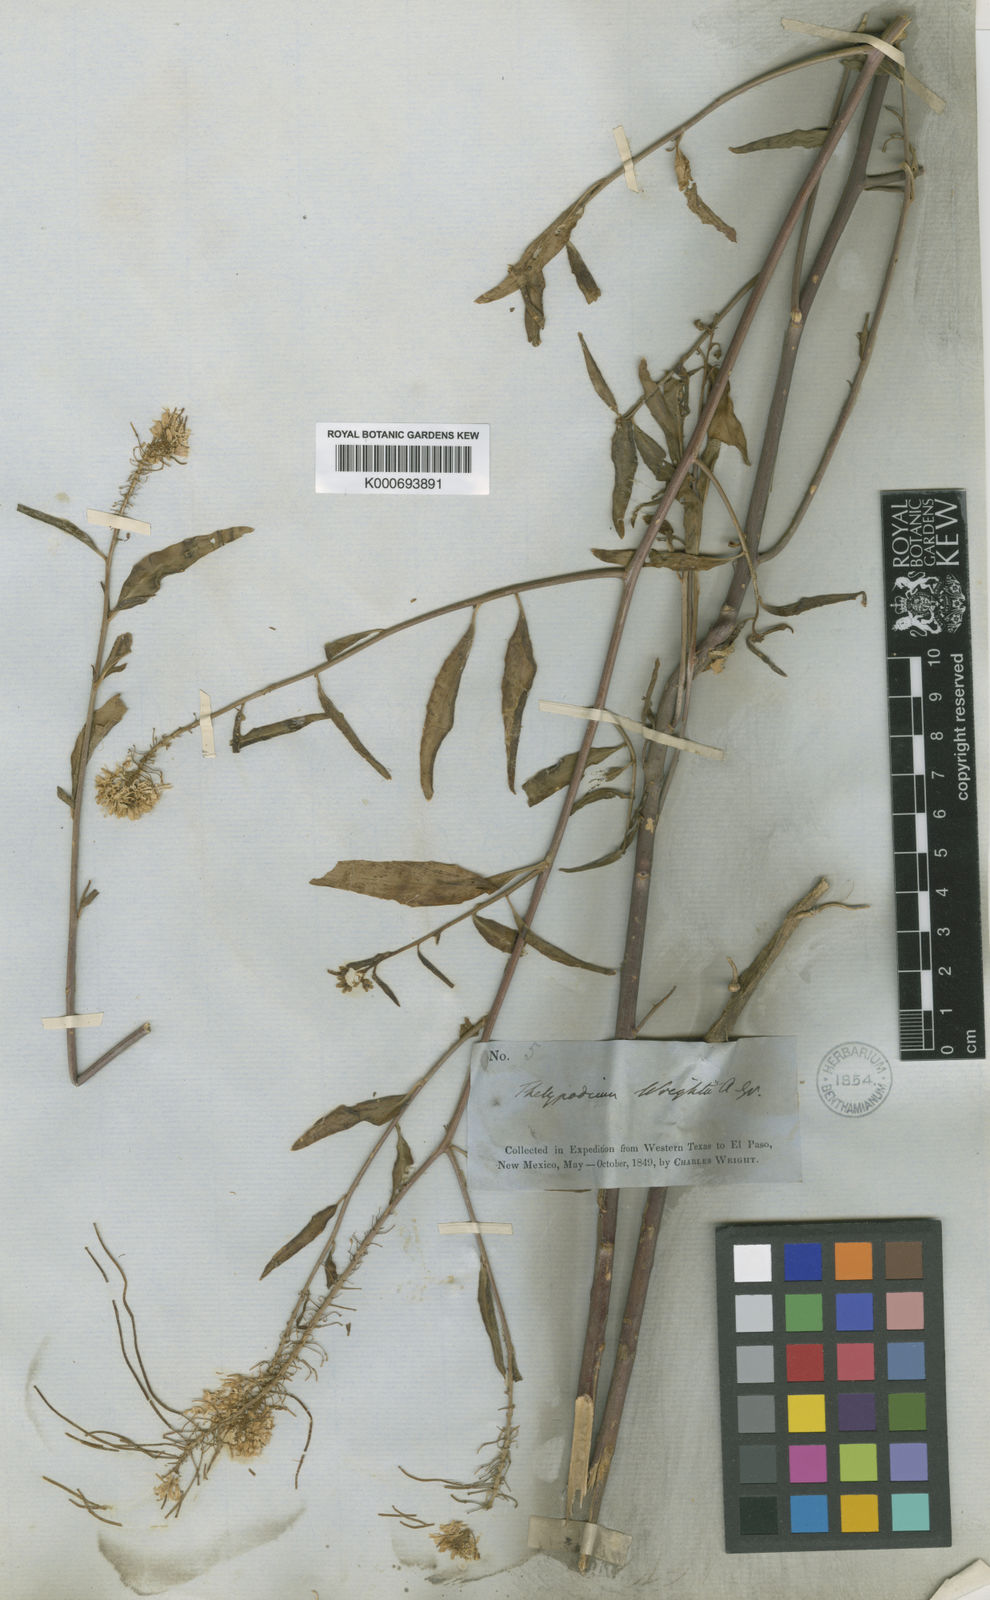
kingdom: Plantae
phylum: Tracheophyta
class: Magnoliopsida
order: Brassicales
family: Brassicaceae
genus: Thelypodium
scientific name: Thelypodium wrightii
